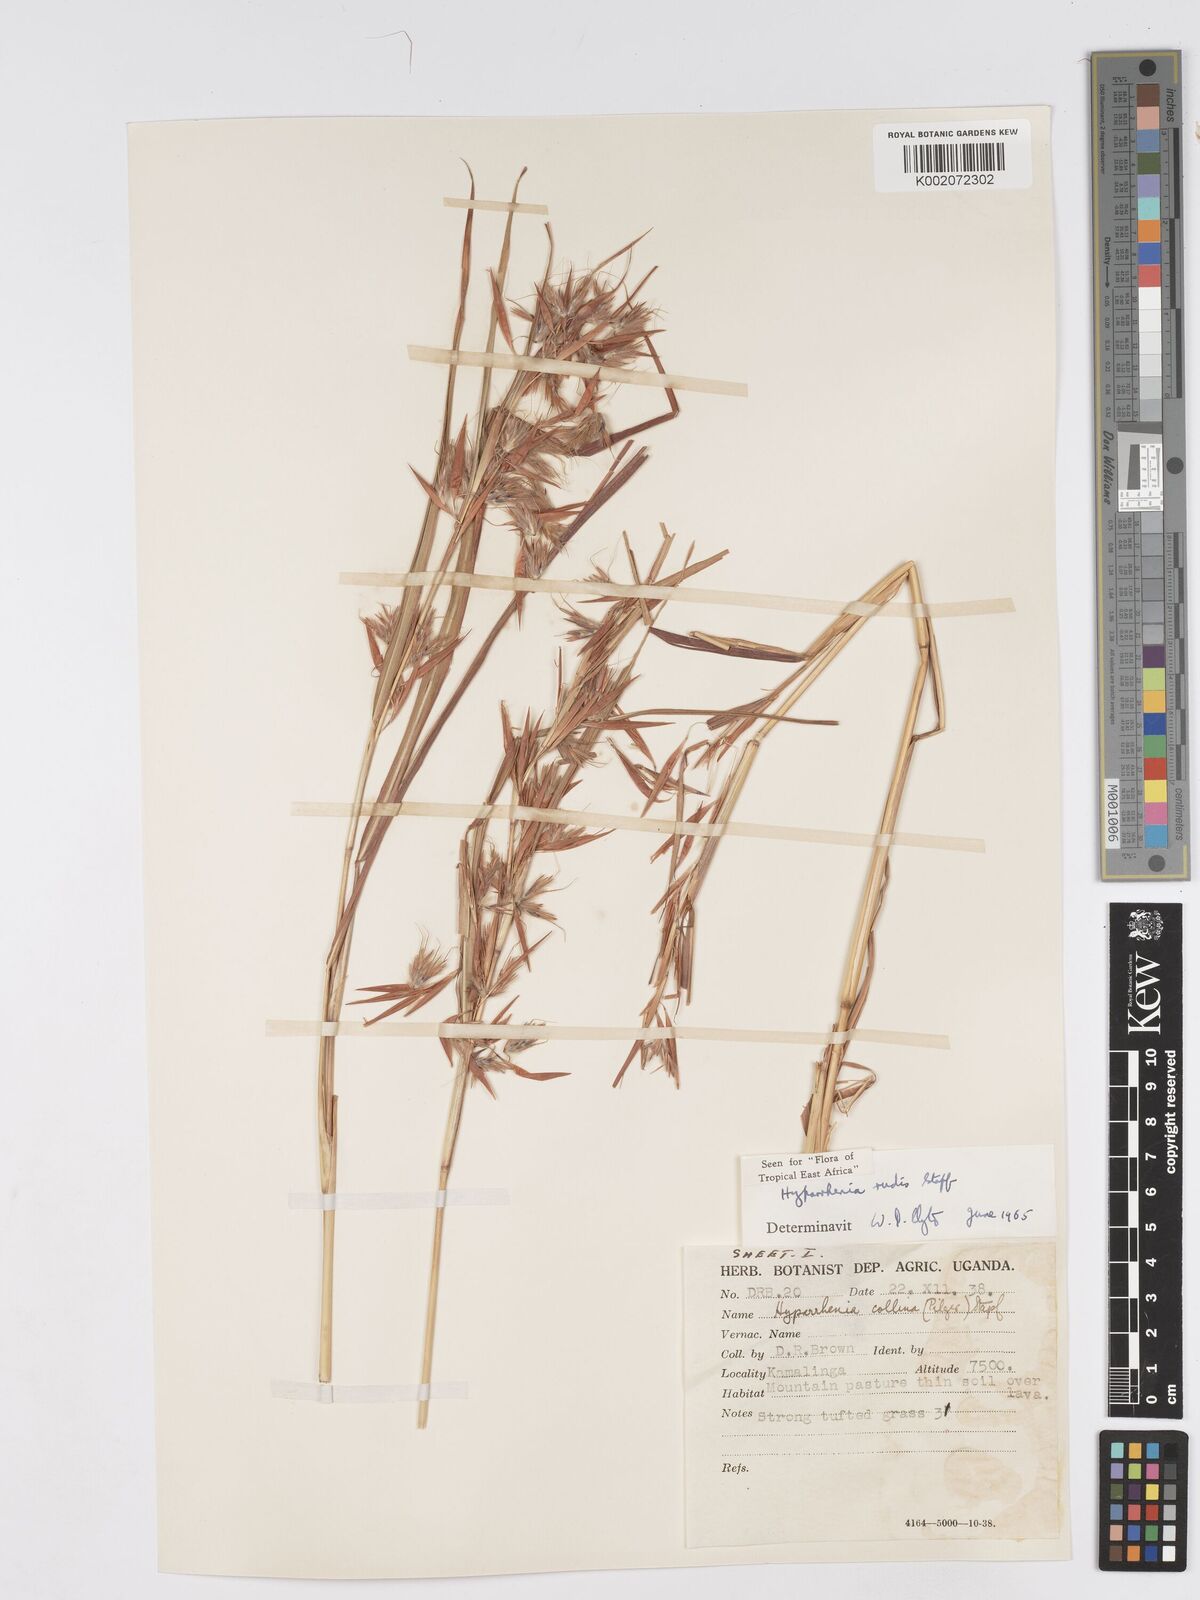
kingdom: Plantae
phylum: Tracheophyta
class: Liliopsida
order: Poales
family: Poaceae
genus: Hyparrhenia
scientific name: Hyparrhenia rudis
